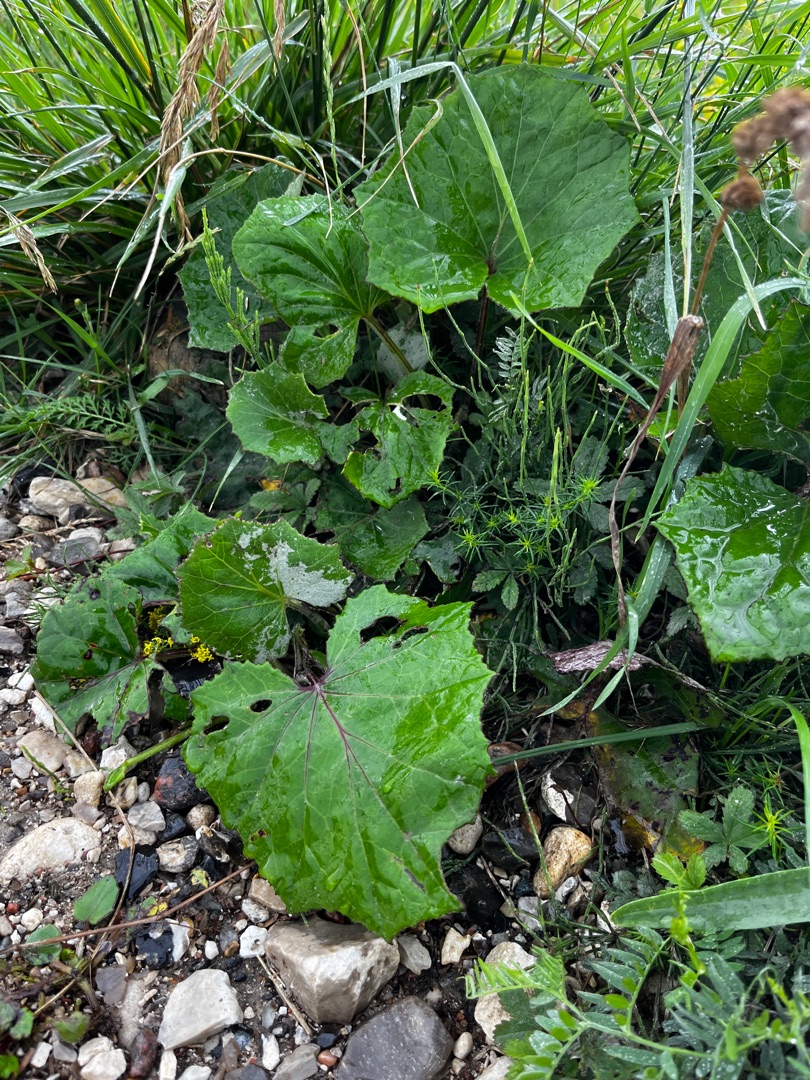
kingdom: Plantae
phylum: Tracheophyta
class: Magnoliopsida
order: Asterales
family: Asteraceae
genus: Tussilago
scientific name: Tussilago farfara
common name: Følfod
